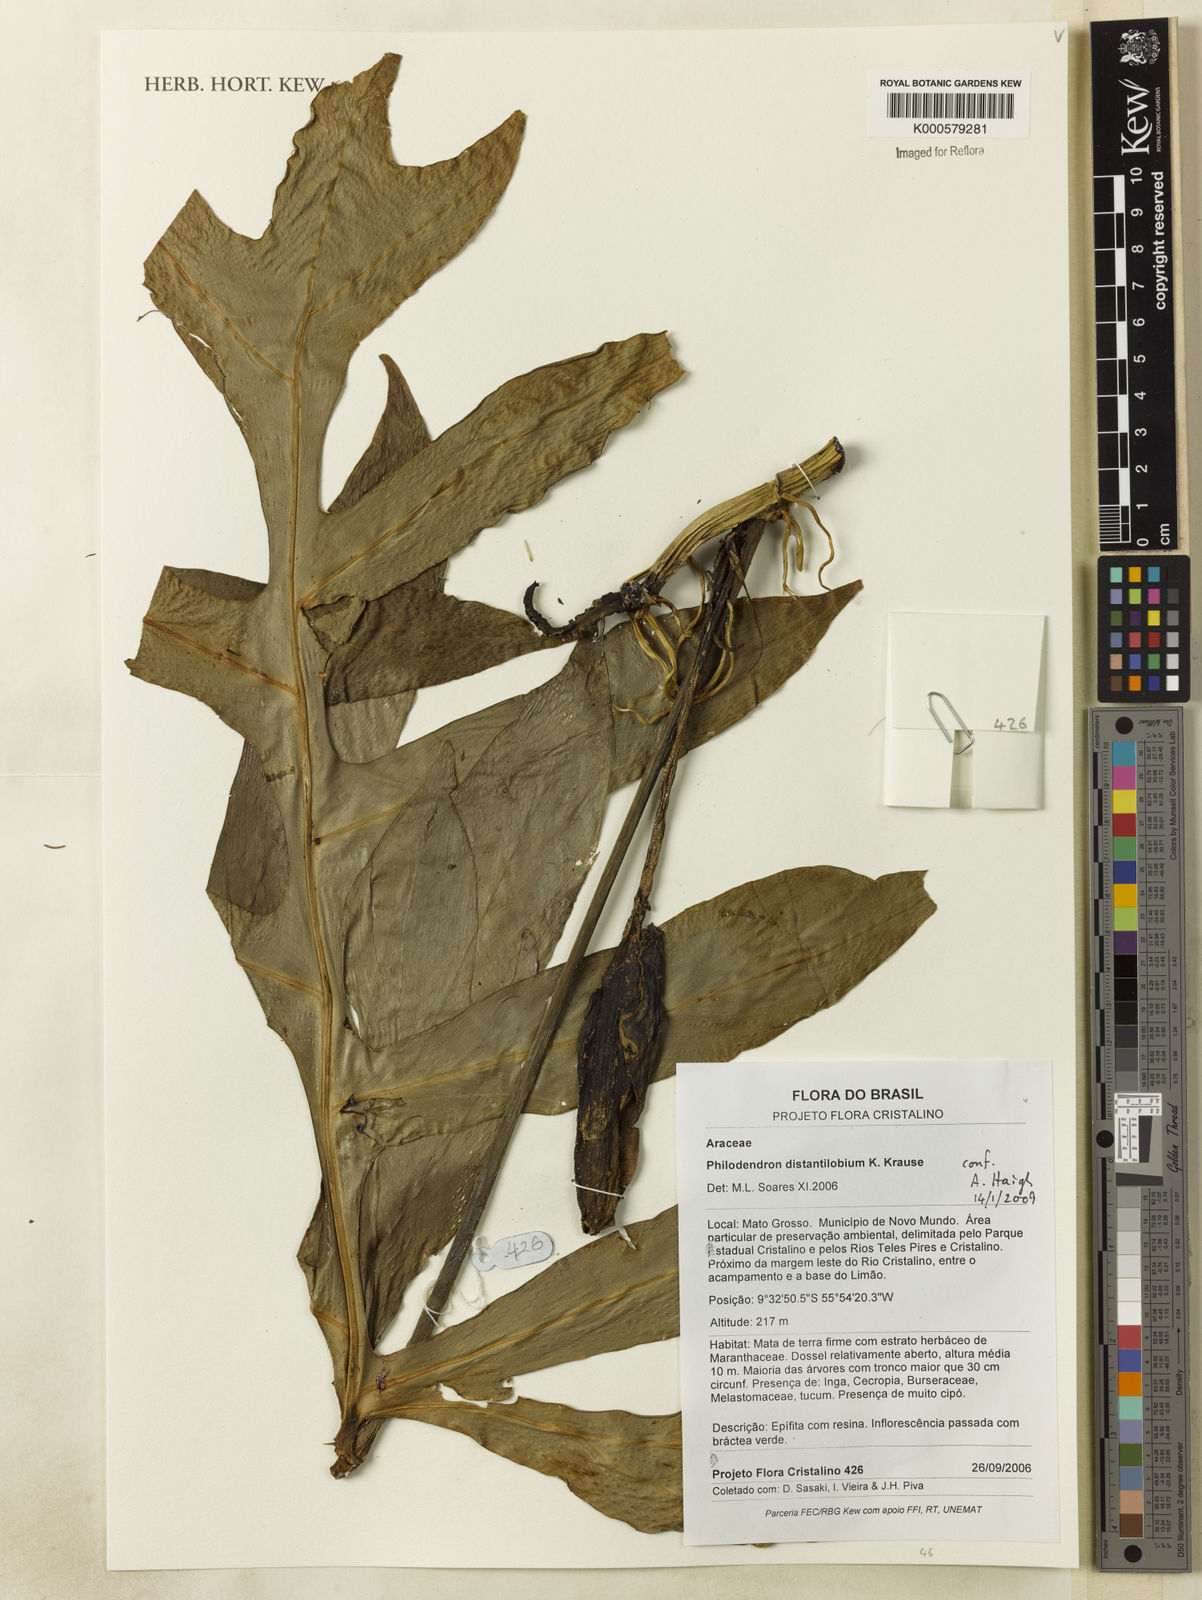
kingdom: Plantae
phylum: Tracheophyta
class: Liliopsida
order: Alismatales
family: Araceae
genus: Philodendron
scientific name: Philodendron
